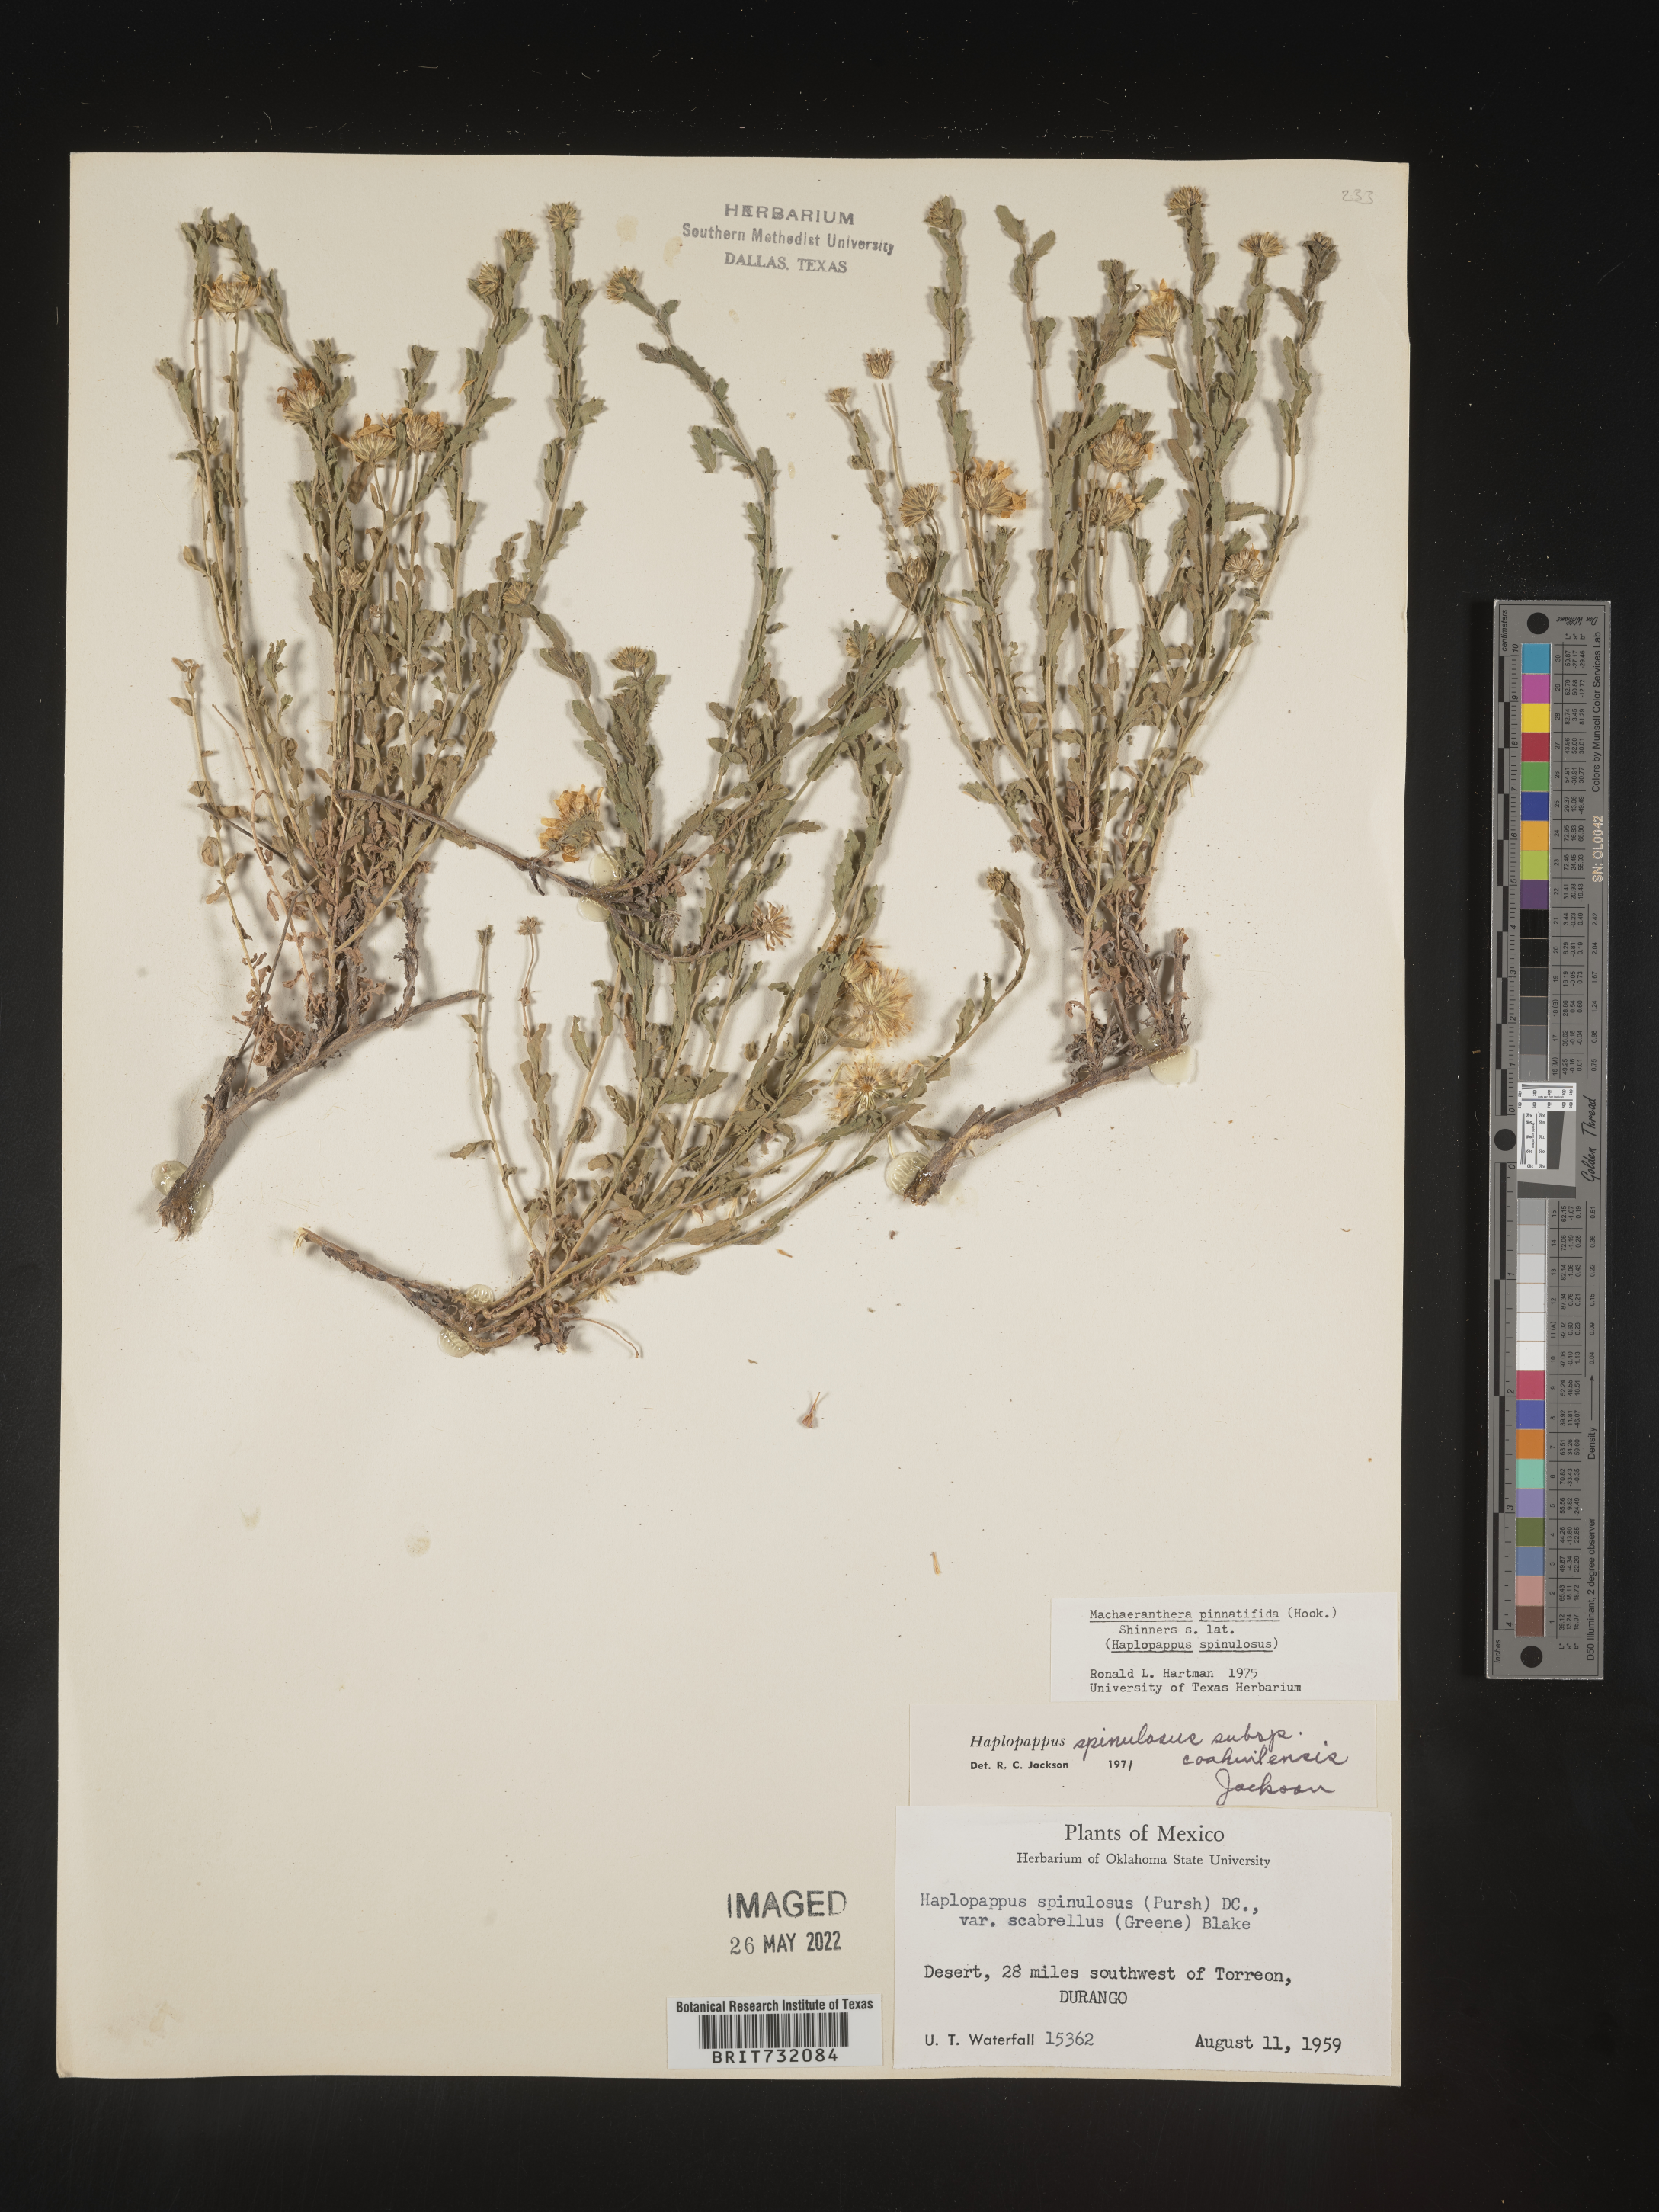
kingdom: Plantae
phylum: Tracheophyta
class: Magnoliopsida
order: Asterales
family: Asteraceae
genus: Xanthisma
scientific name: Xanthisma gypsophilum
